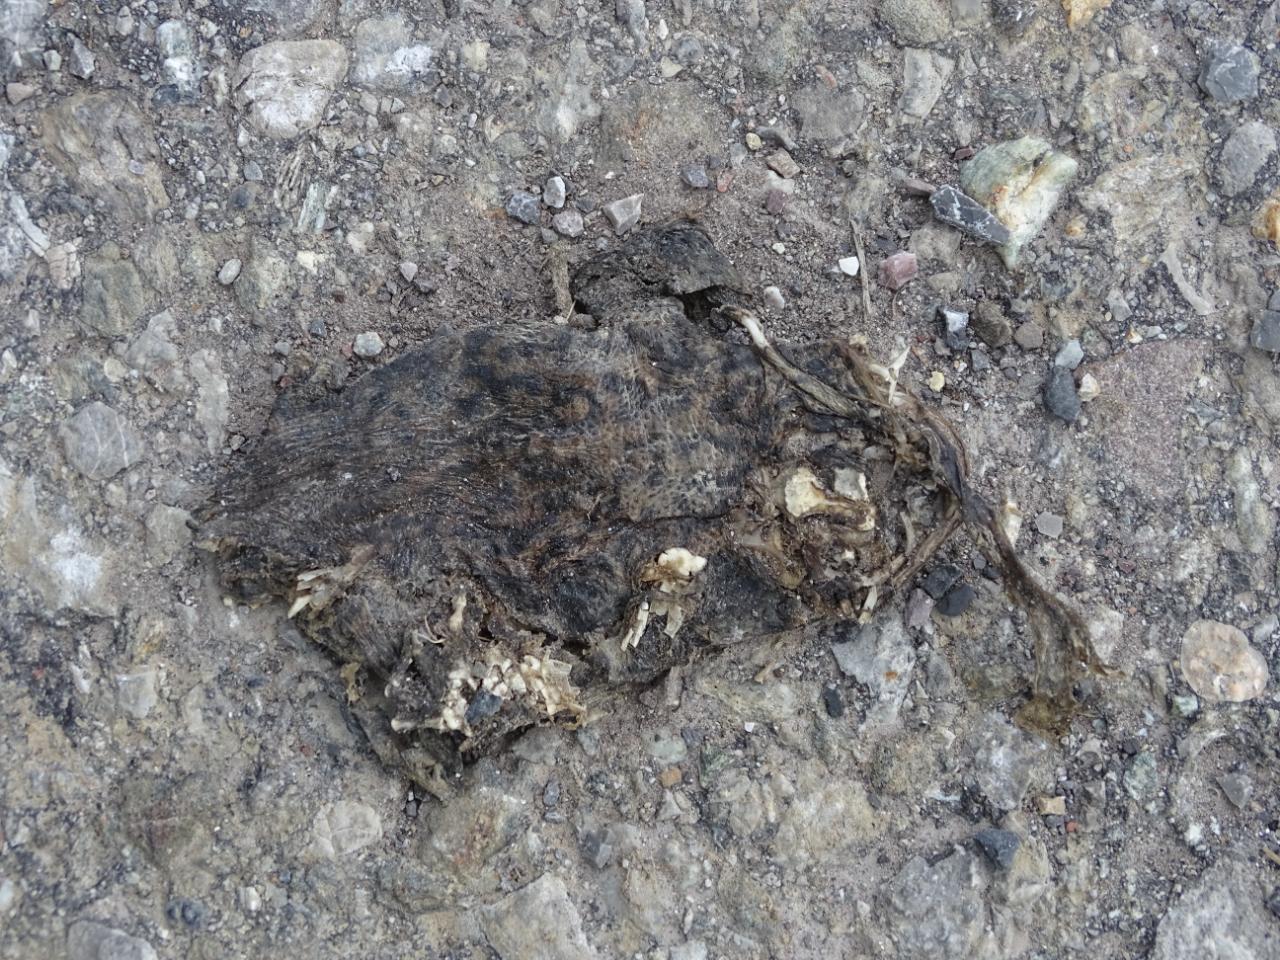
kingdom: Animalia
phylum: Chordata
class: Amphibia
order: Anura
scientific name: Anura
